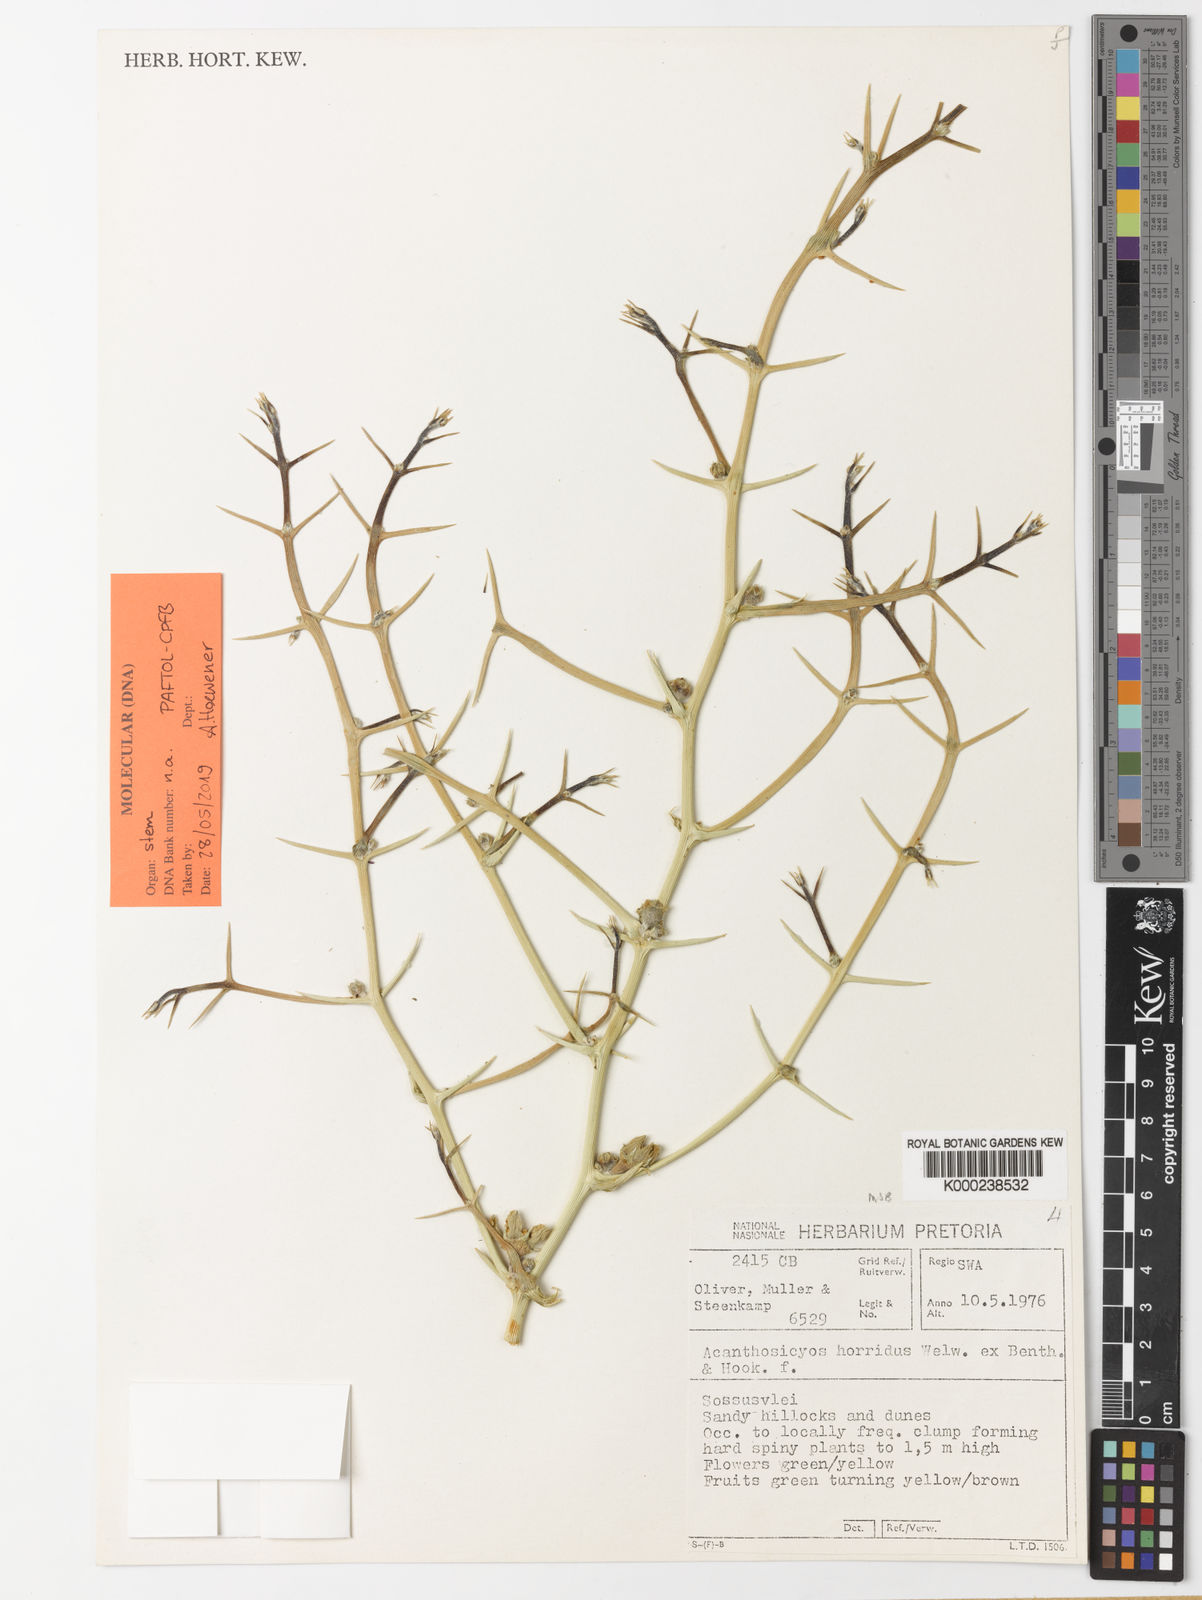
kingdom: Plantae
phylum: Tracheophyta
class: Magnoliopsida
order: Cucurbitales
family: Cucurbitaceae
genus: Acanthosicyos
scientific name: Acanthosicyos horridus
